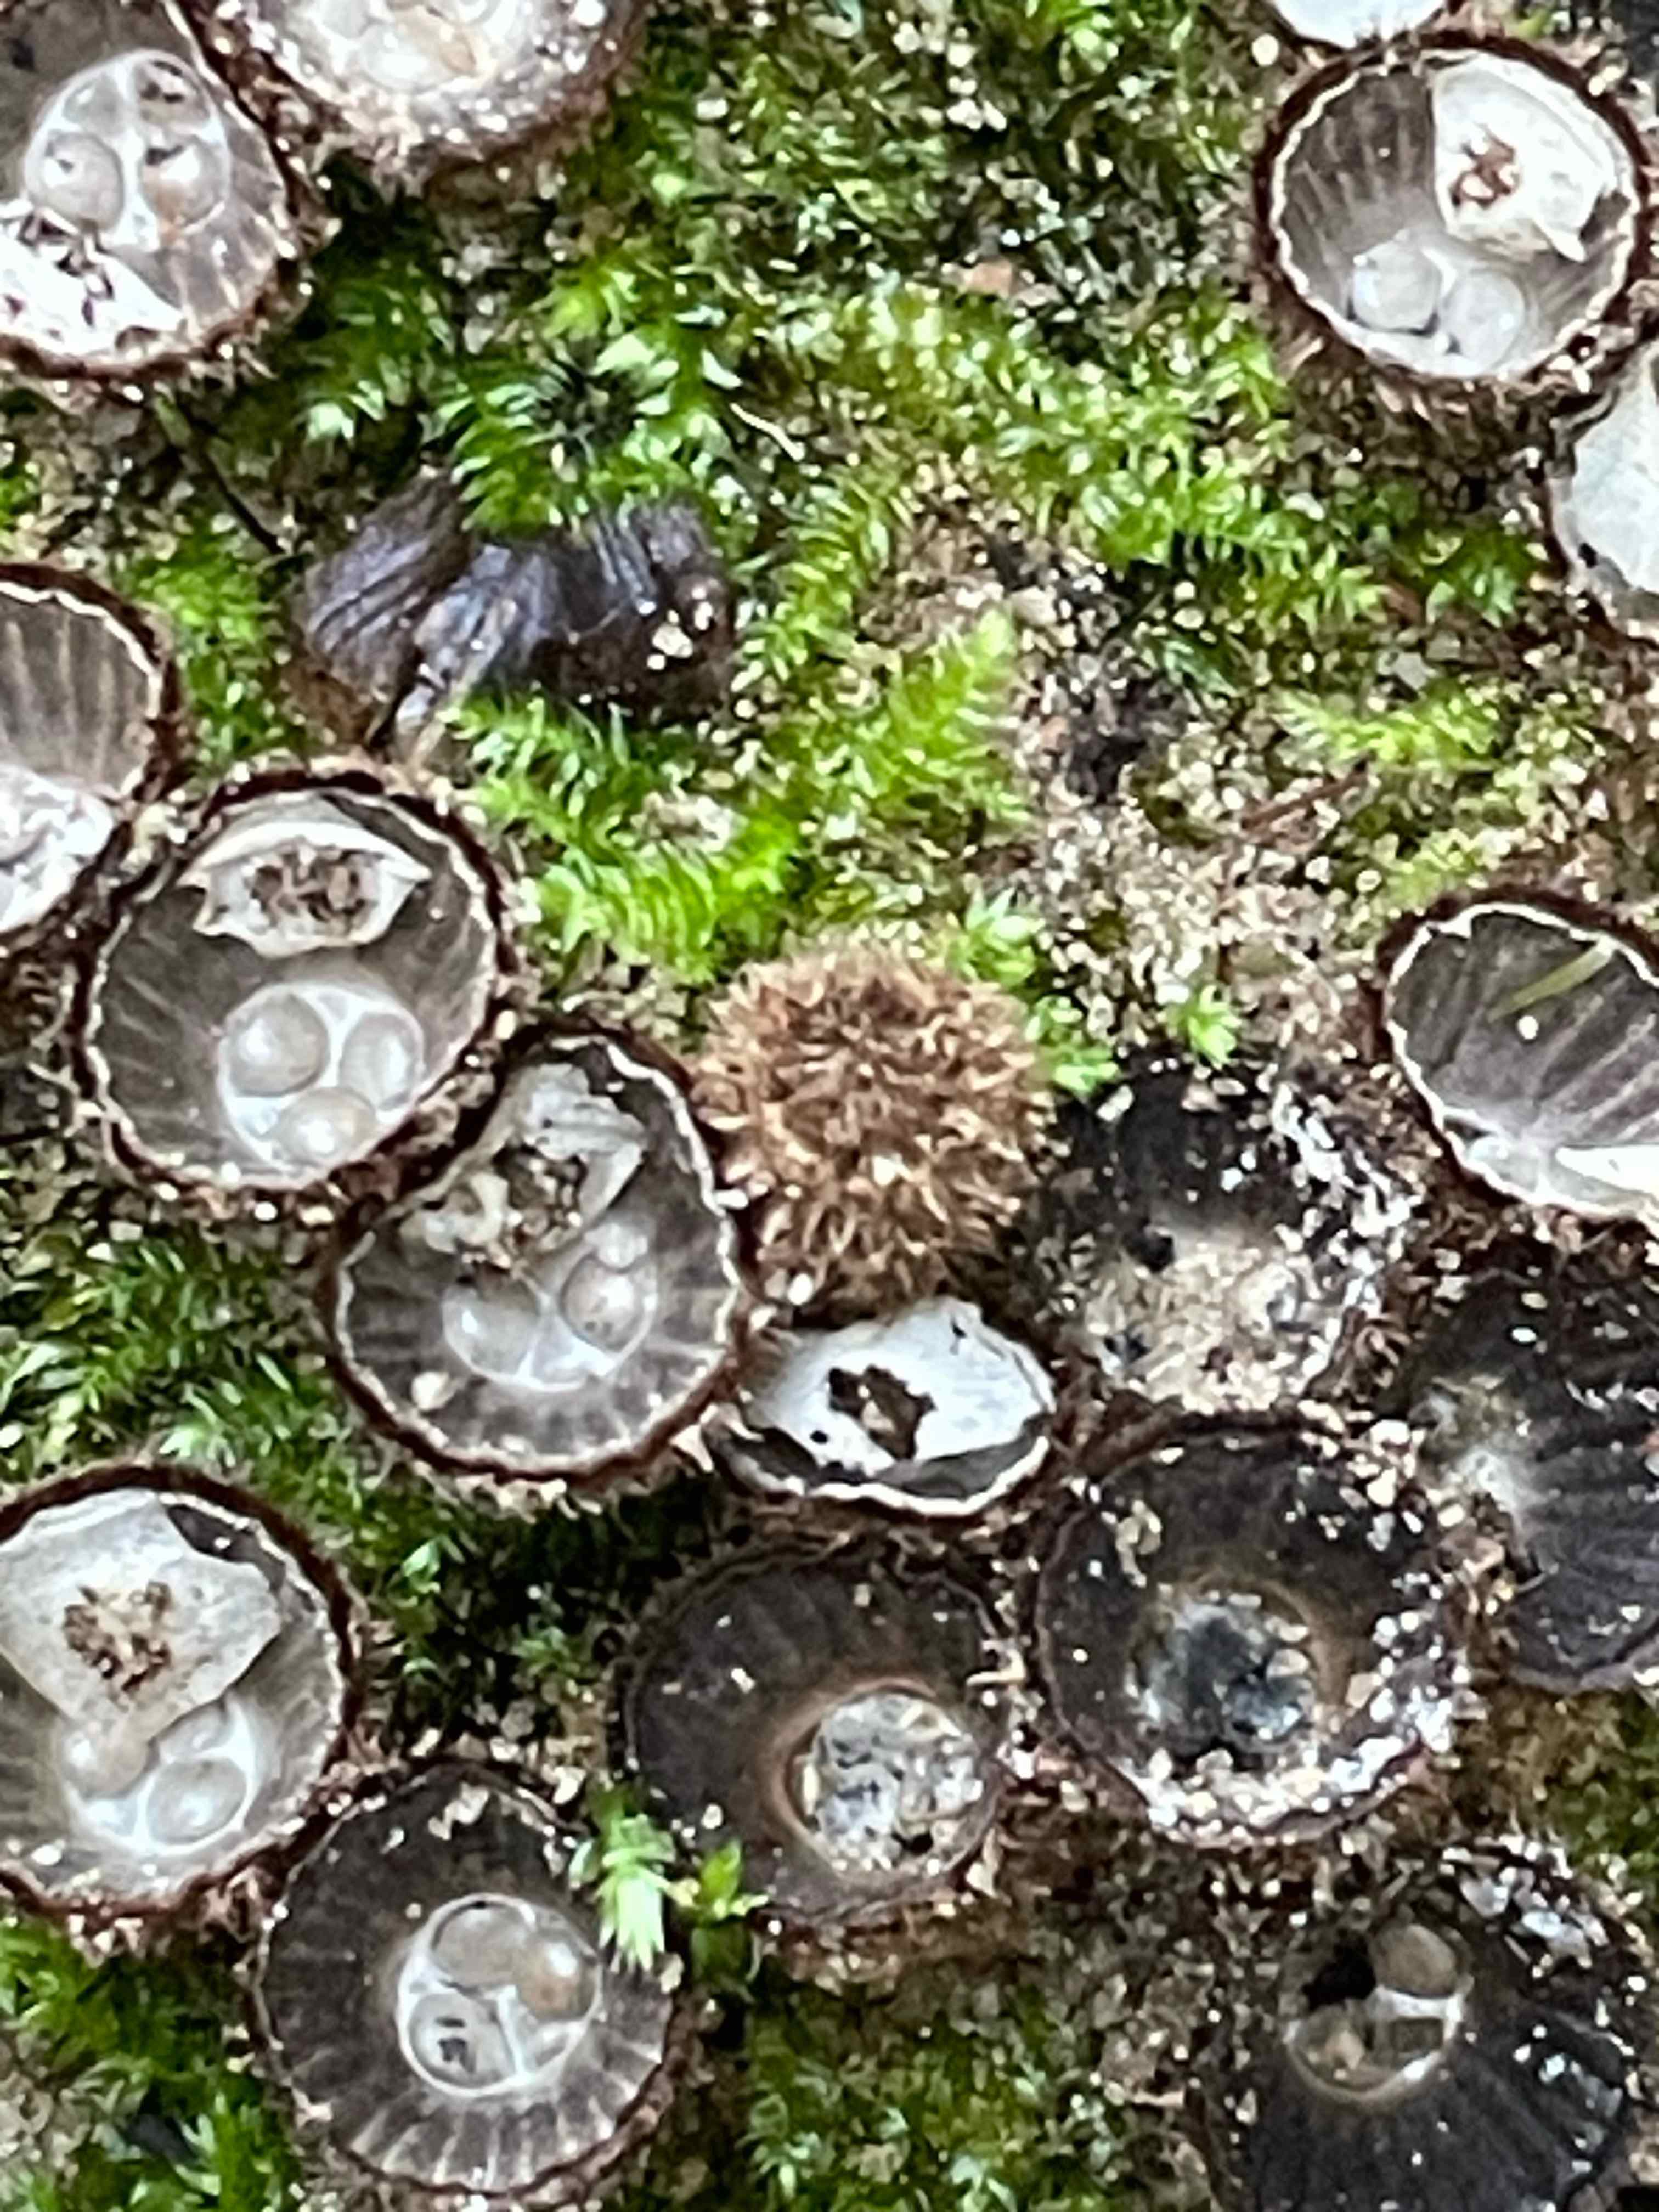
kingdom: Fungi
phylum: Basidiomycota
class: Agaricomycetes
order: Agaricales
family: Agaricaceae
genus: Cyathus
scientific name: Cyathus striatus
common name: stribet redesvamp
